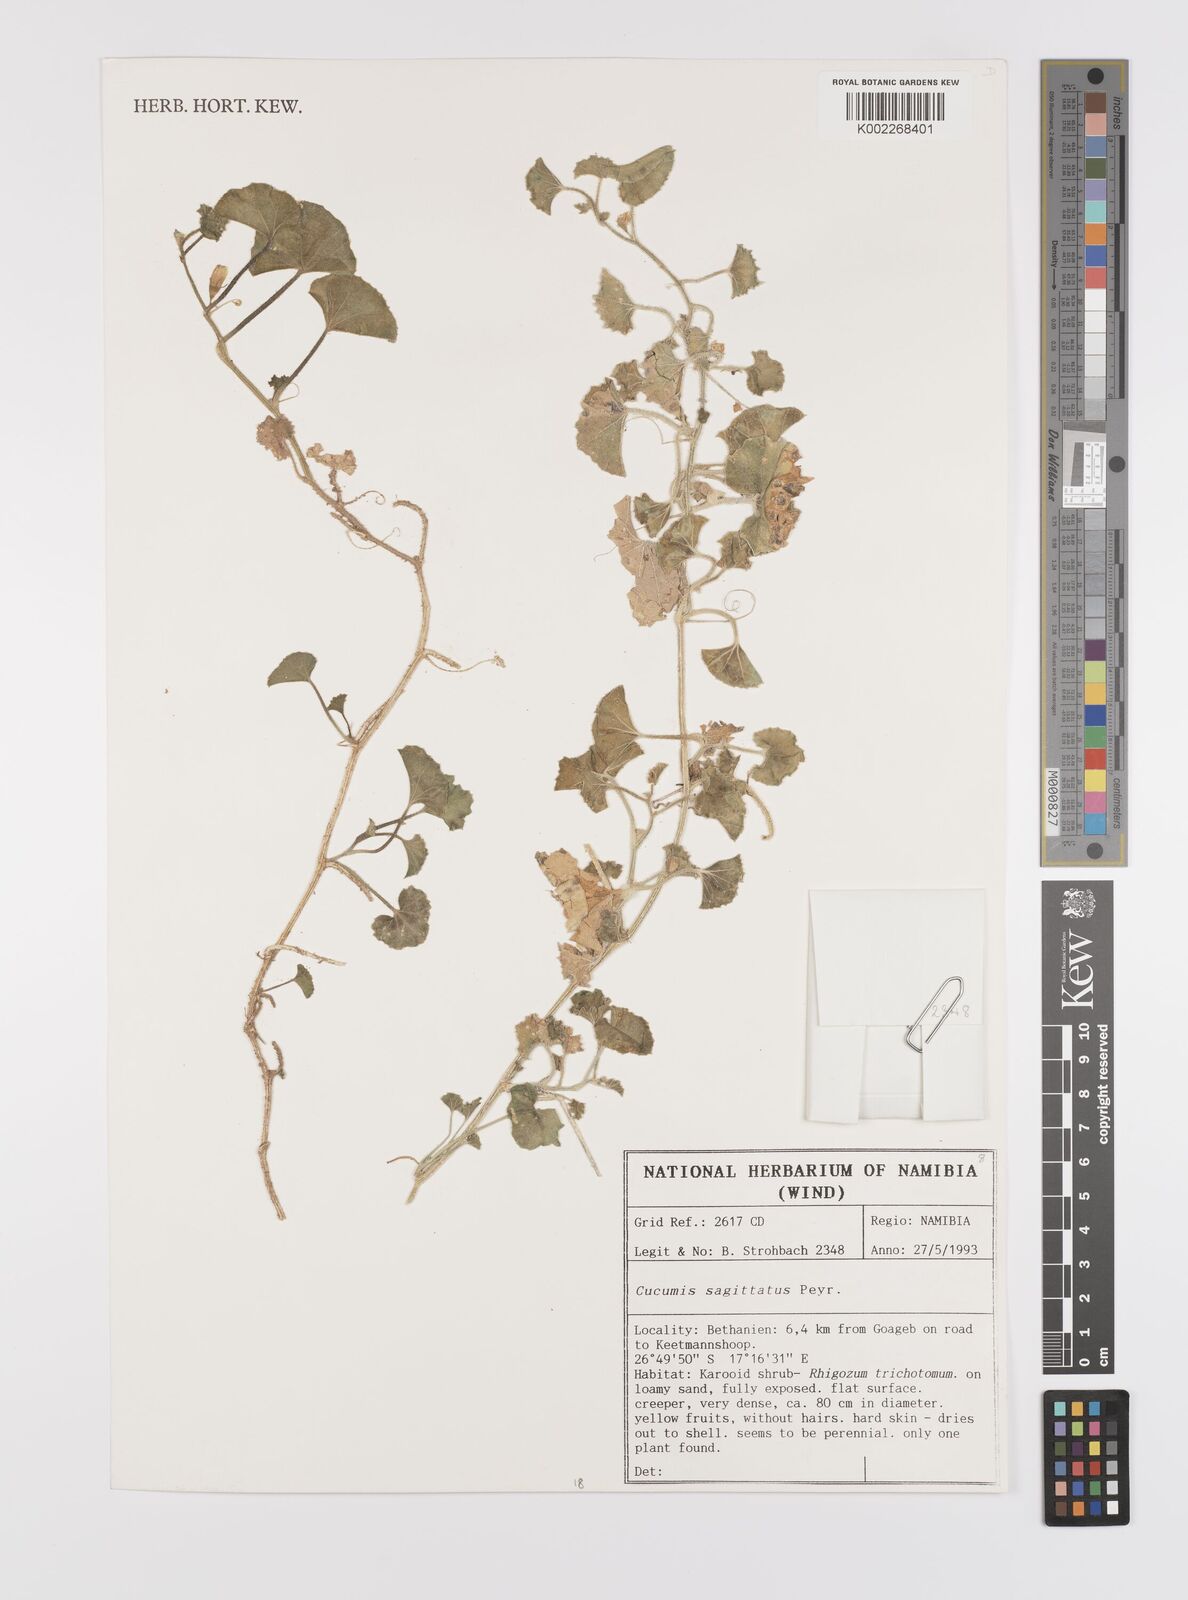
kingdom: Plantae
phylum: Tracheophyta
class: Magnoliopsida
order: Cucurbitales
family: Cucurbitaceae
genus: Cucumis
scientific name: Cucumis sagittatus
